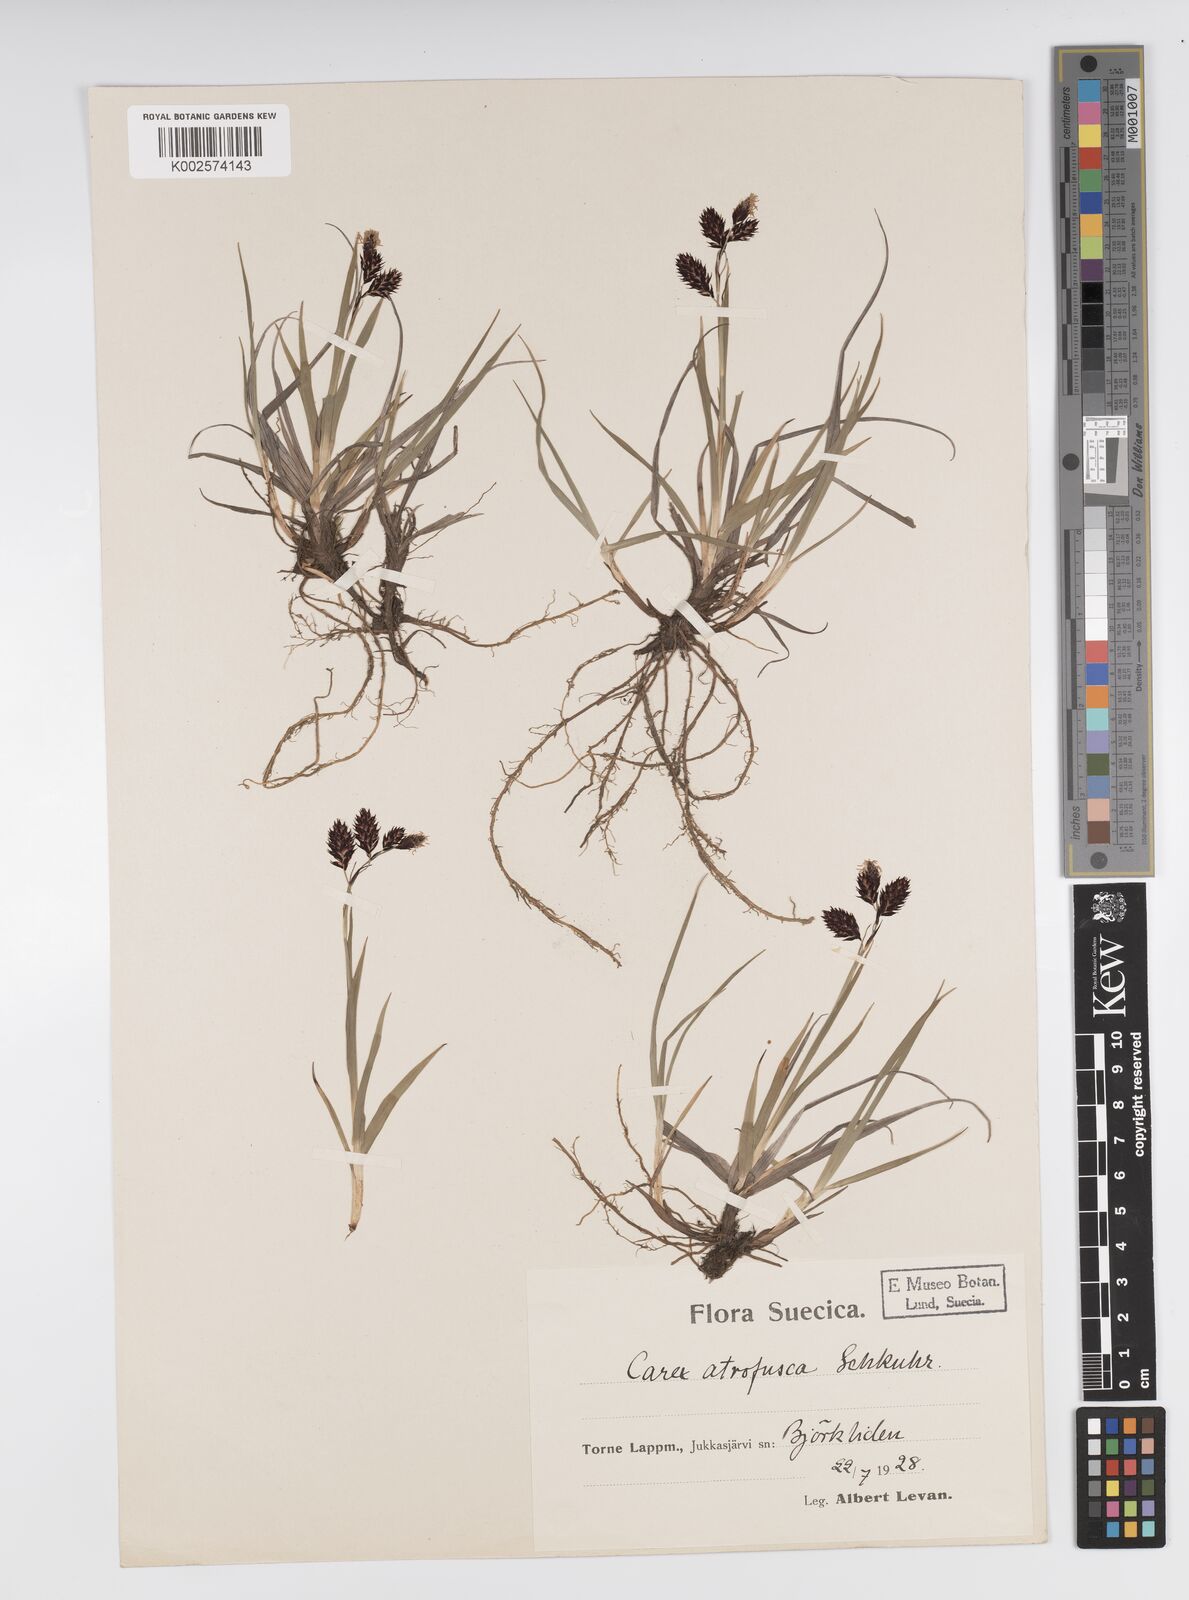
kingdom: Plantae
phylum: Tracheophyta
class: Liliopsida
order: Poales
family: Cyperaceae
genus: Carex
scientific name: Carex atrofusca
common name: Scorched alpine-sedge
